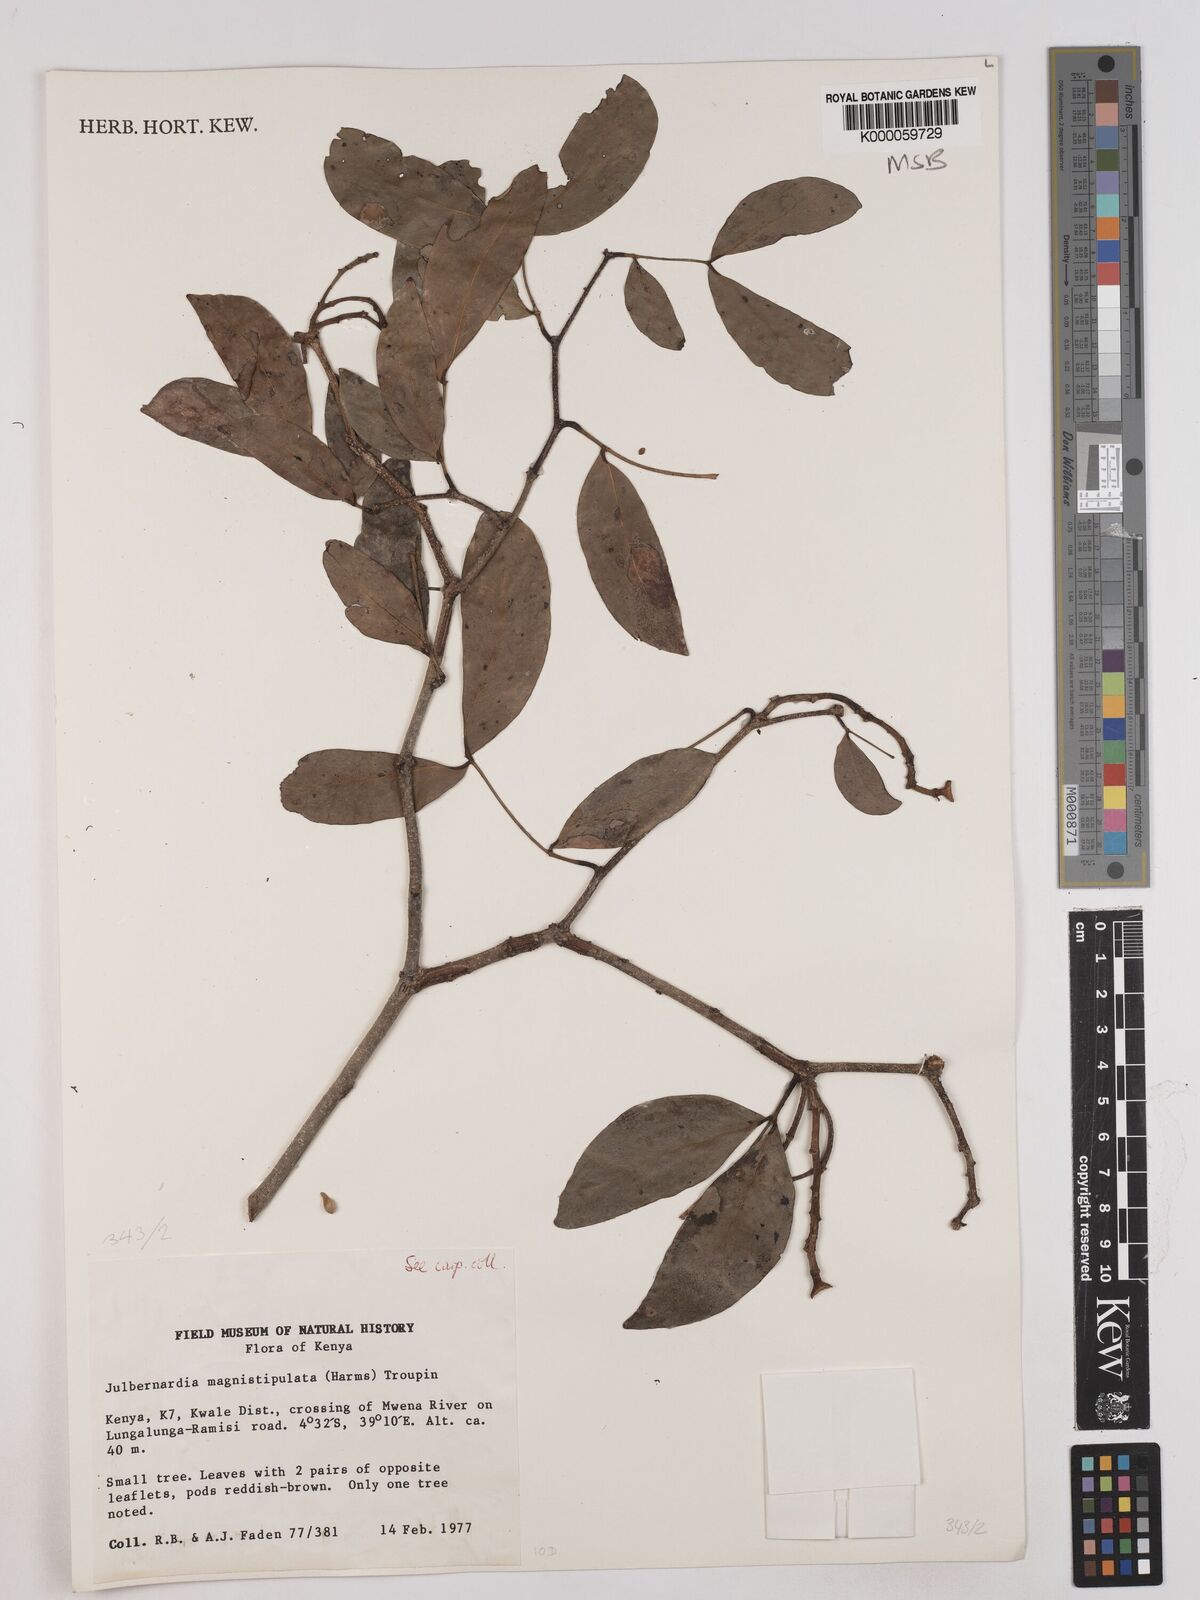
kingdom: Plantae
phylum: Tracheophyta
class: Magnoliopsida
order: Fabales
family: Fabaceae
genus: Julbernardia
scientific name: Julbernardia magnistipulata
